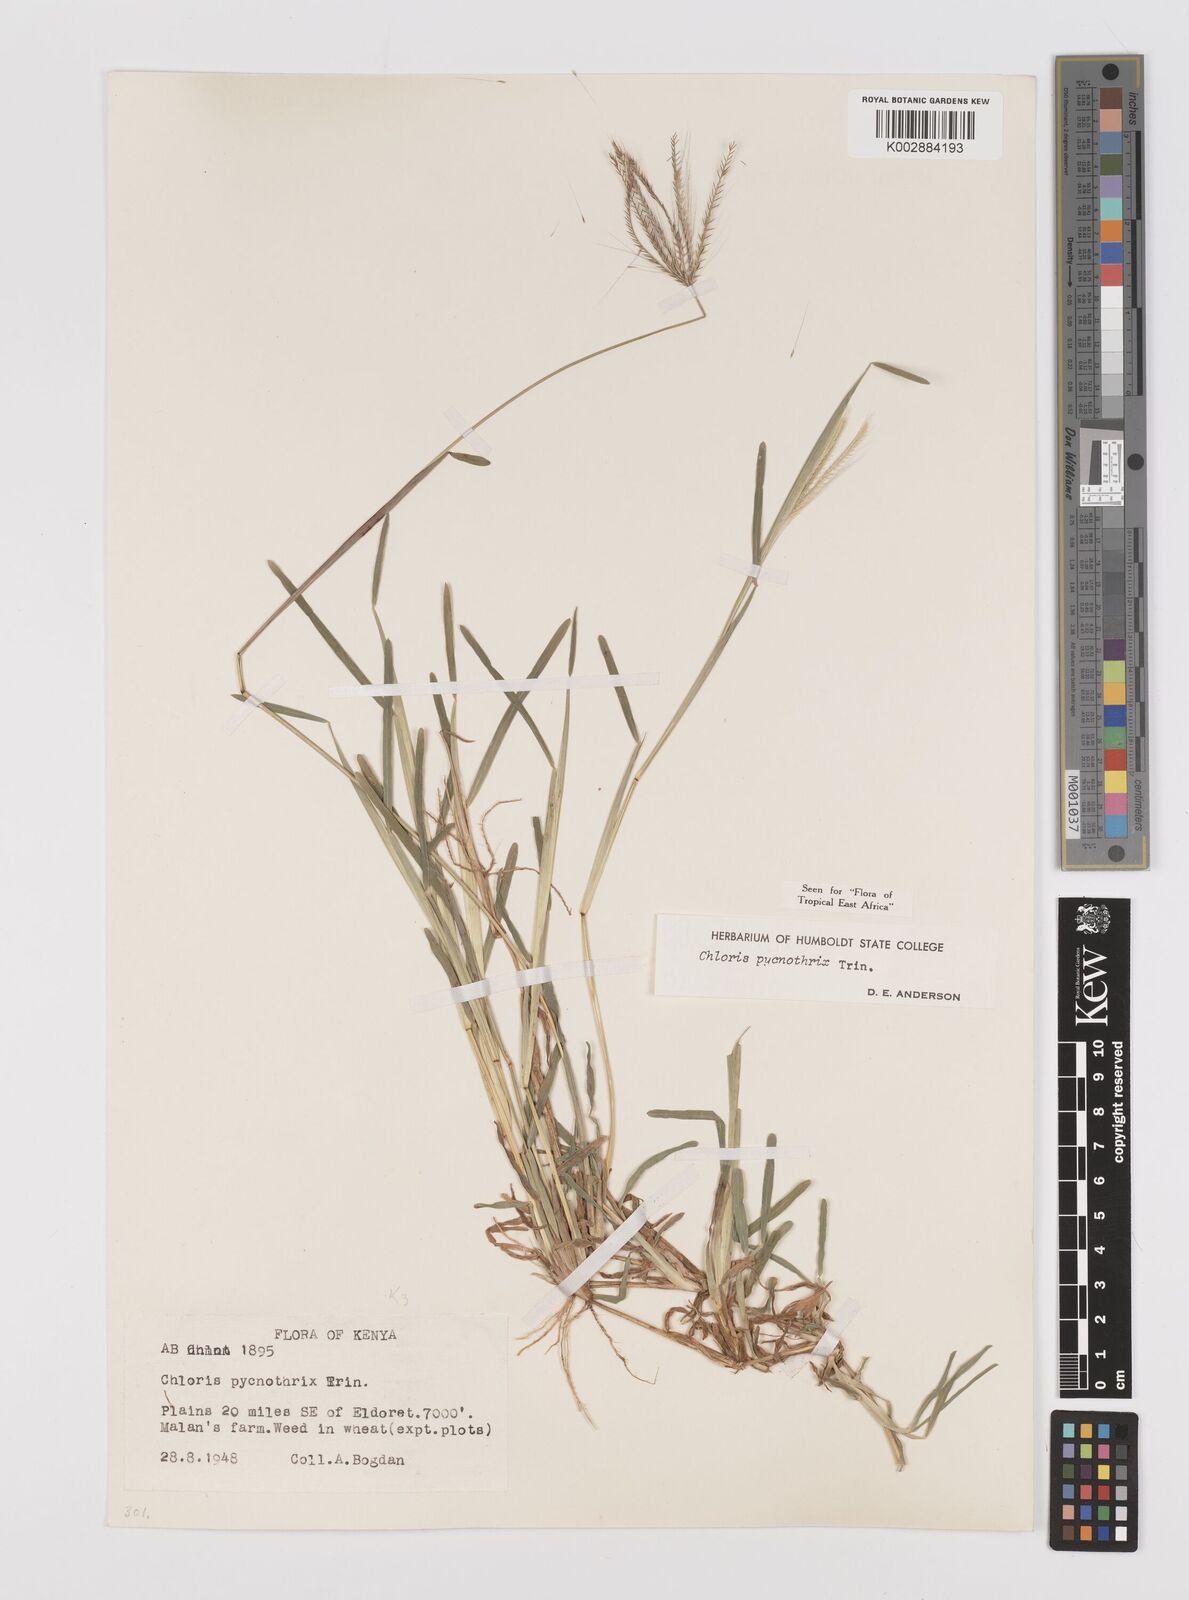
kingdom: Plantae
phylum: Tracheophyta
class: Liliopsida
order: Poales
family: Poaceae
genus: Chloris
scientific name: Chloris pycnothrix
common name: Spiderweb chloris
